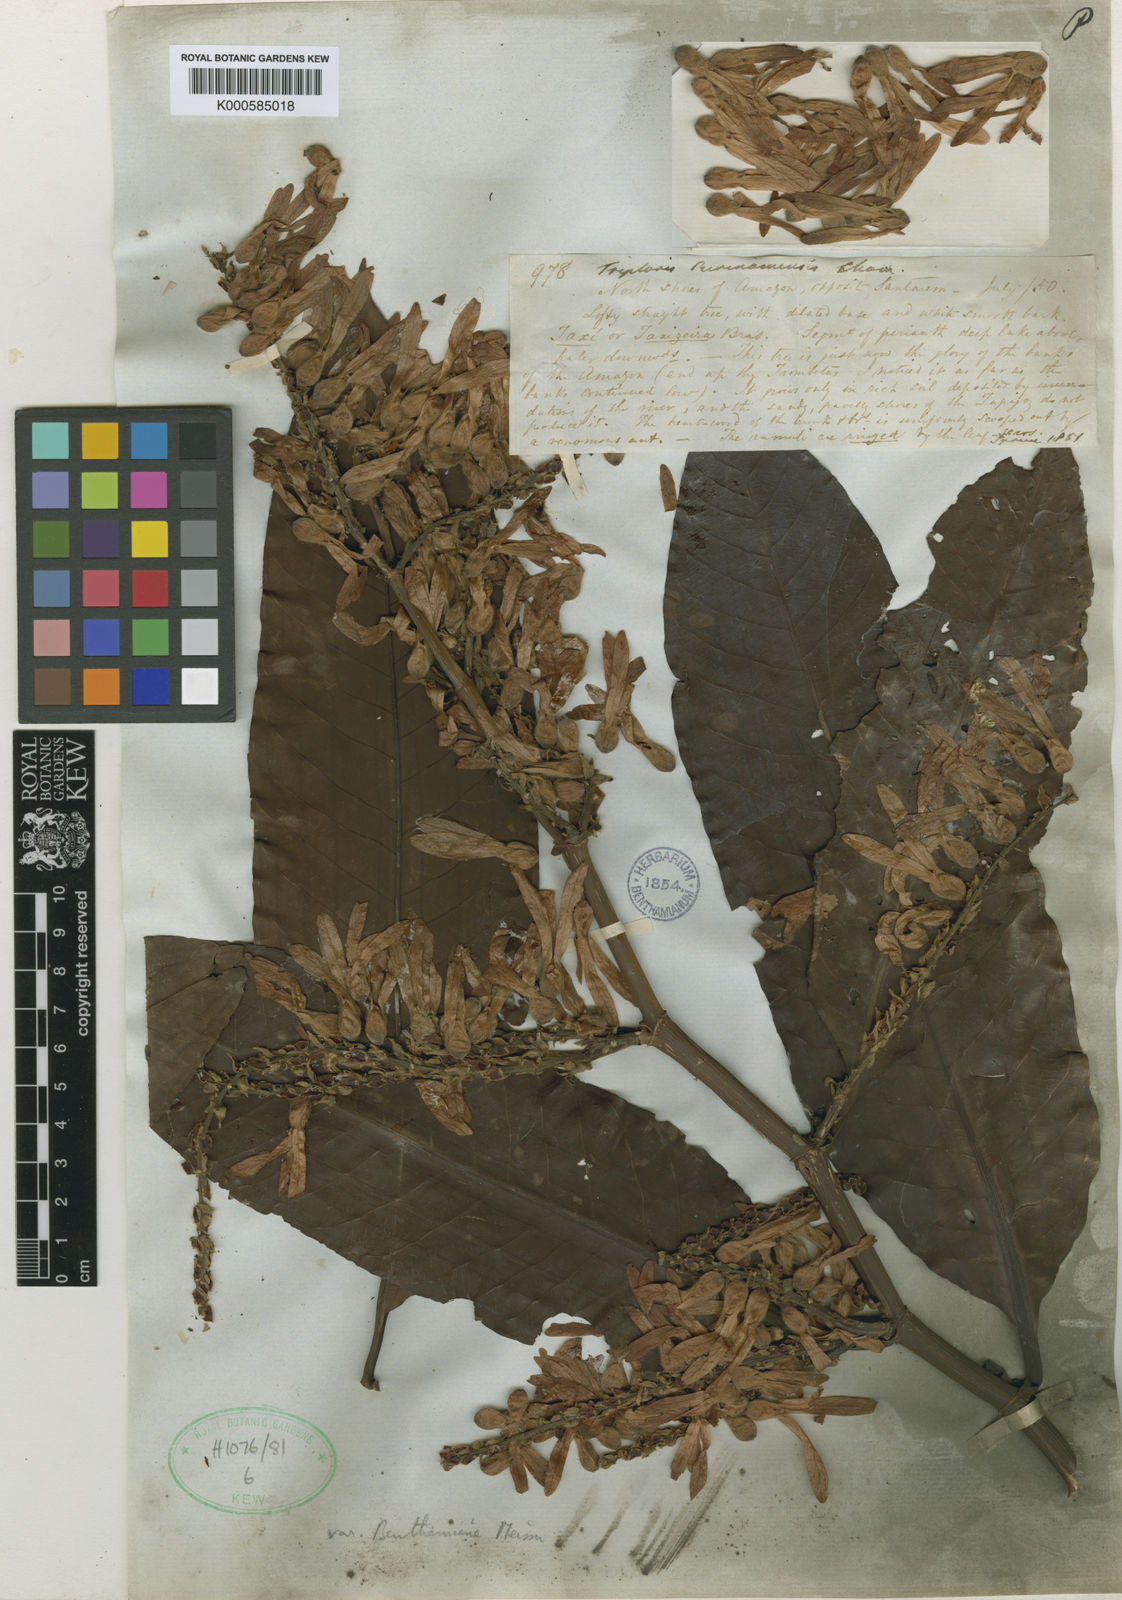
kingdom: Plantae
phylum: Tracheophyta
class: Magnoliopsida
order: Caryophyllales
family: Polygonaceae
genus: Triplaris
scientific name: Triplaris weigeltiana
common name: Long john
